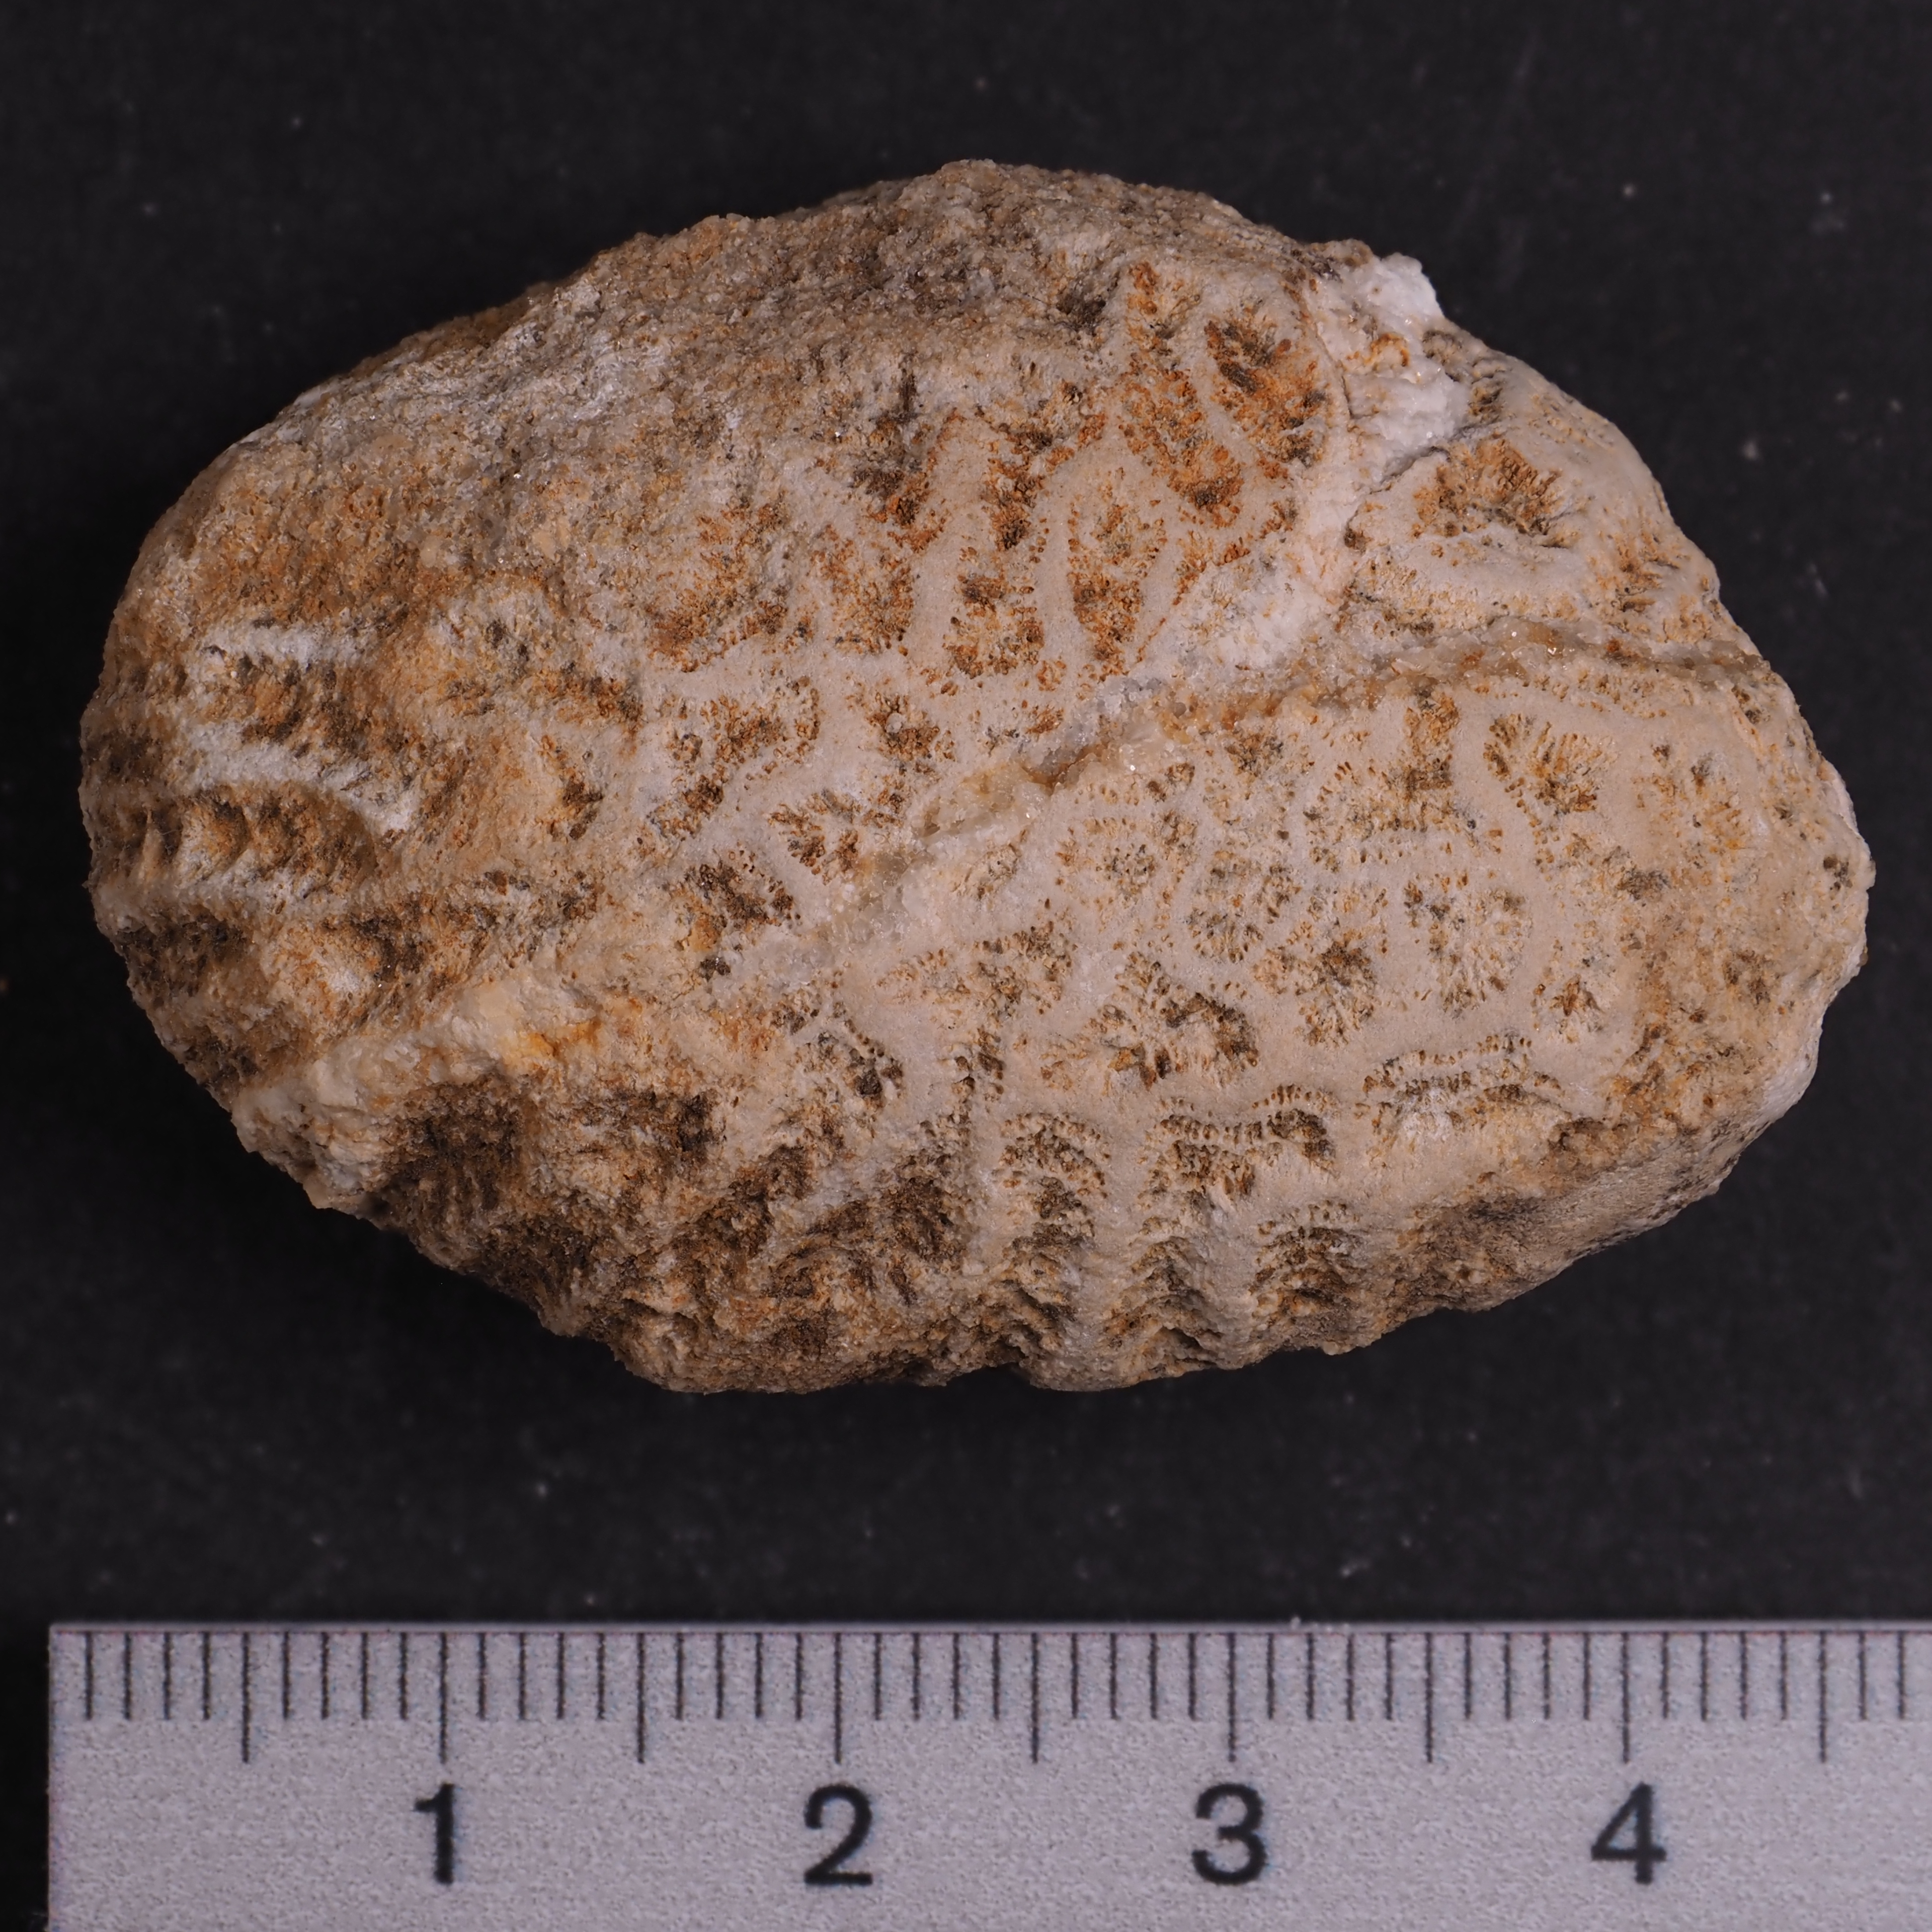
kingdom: Animalia
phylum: Cnidaria
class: Anthozoa
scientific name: Anthozoa
